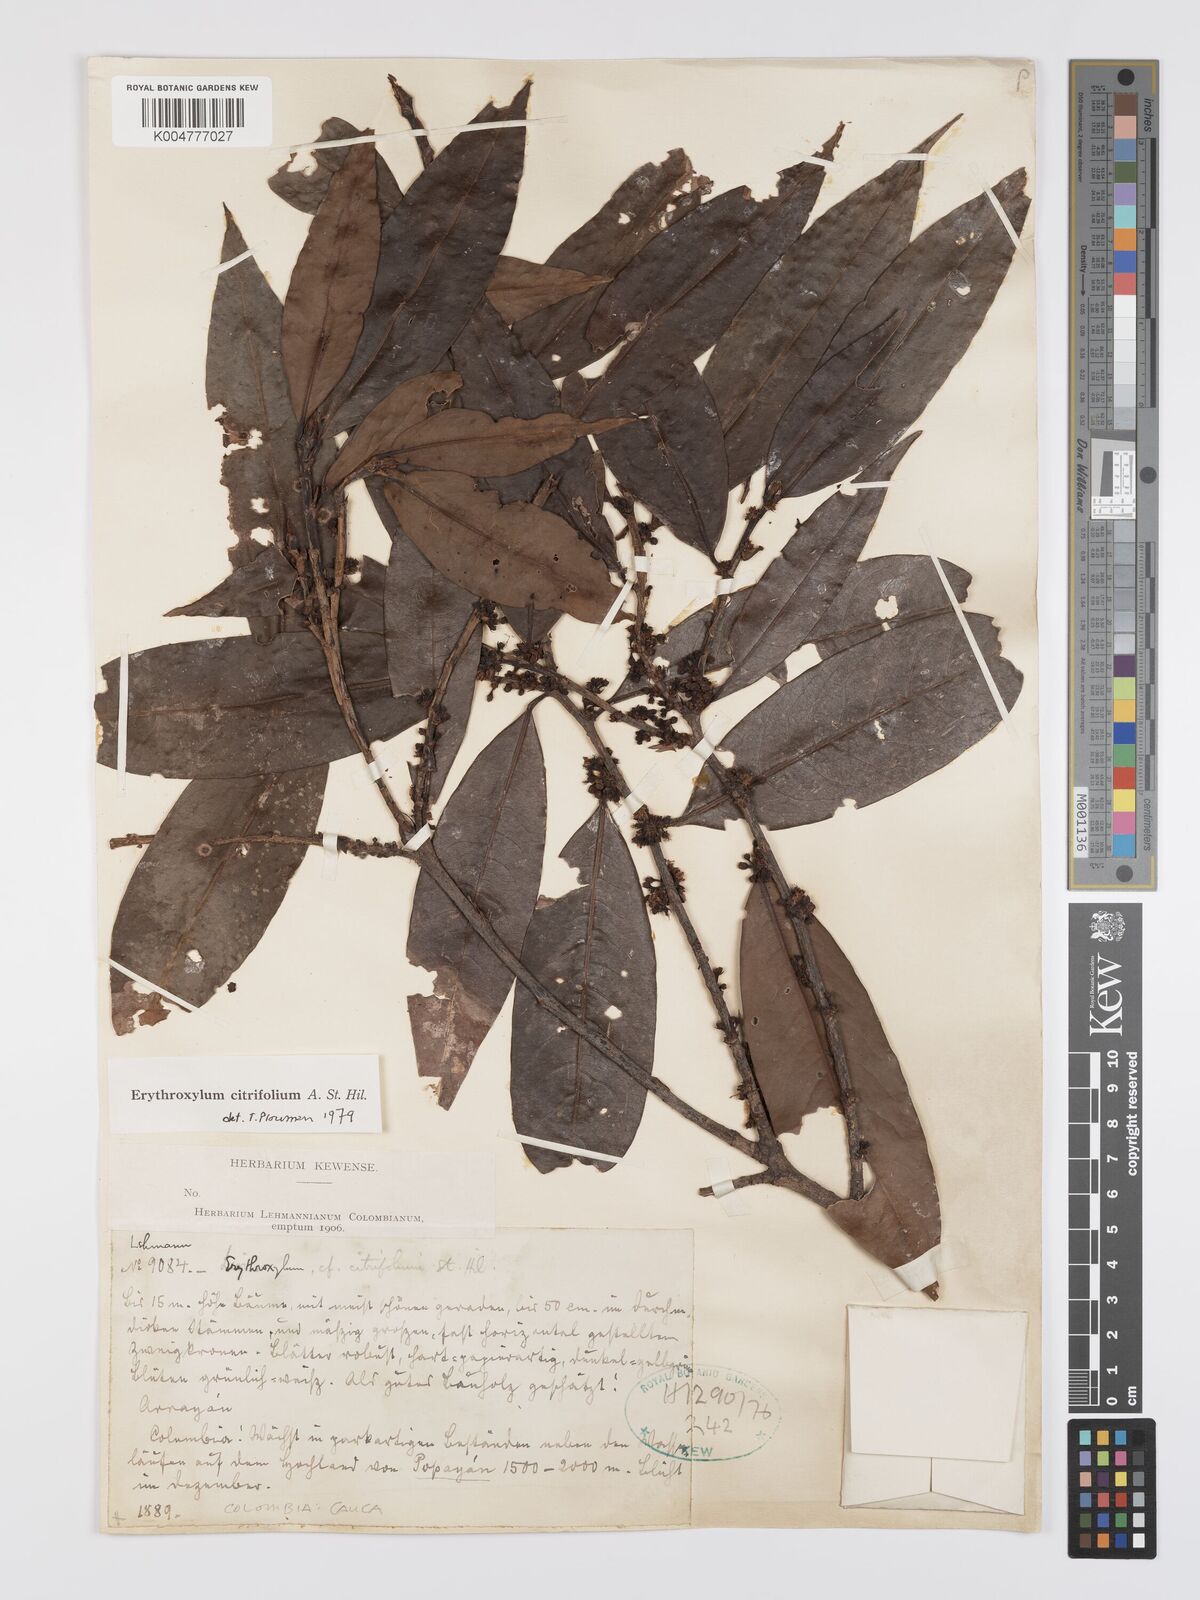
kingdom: Plantae
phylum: Tracheophyta
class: Magnoliopsida
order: Malpighiales
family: Erythroxylaceae
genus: Erythroxylum
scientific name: Erythroxylum citrifolium
